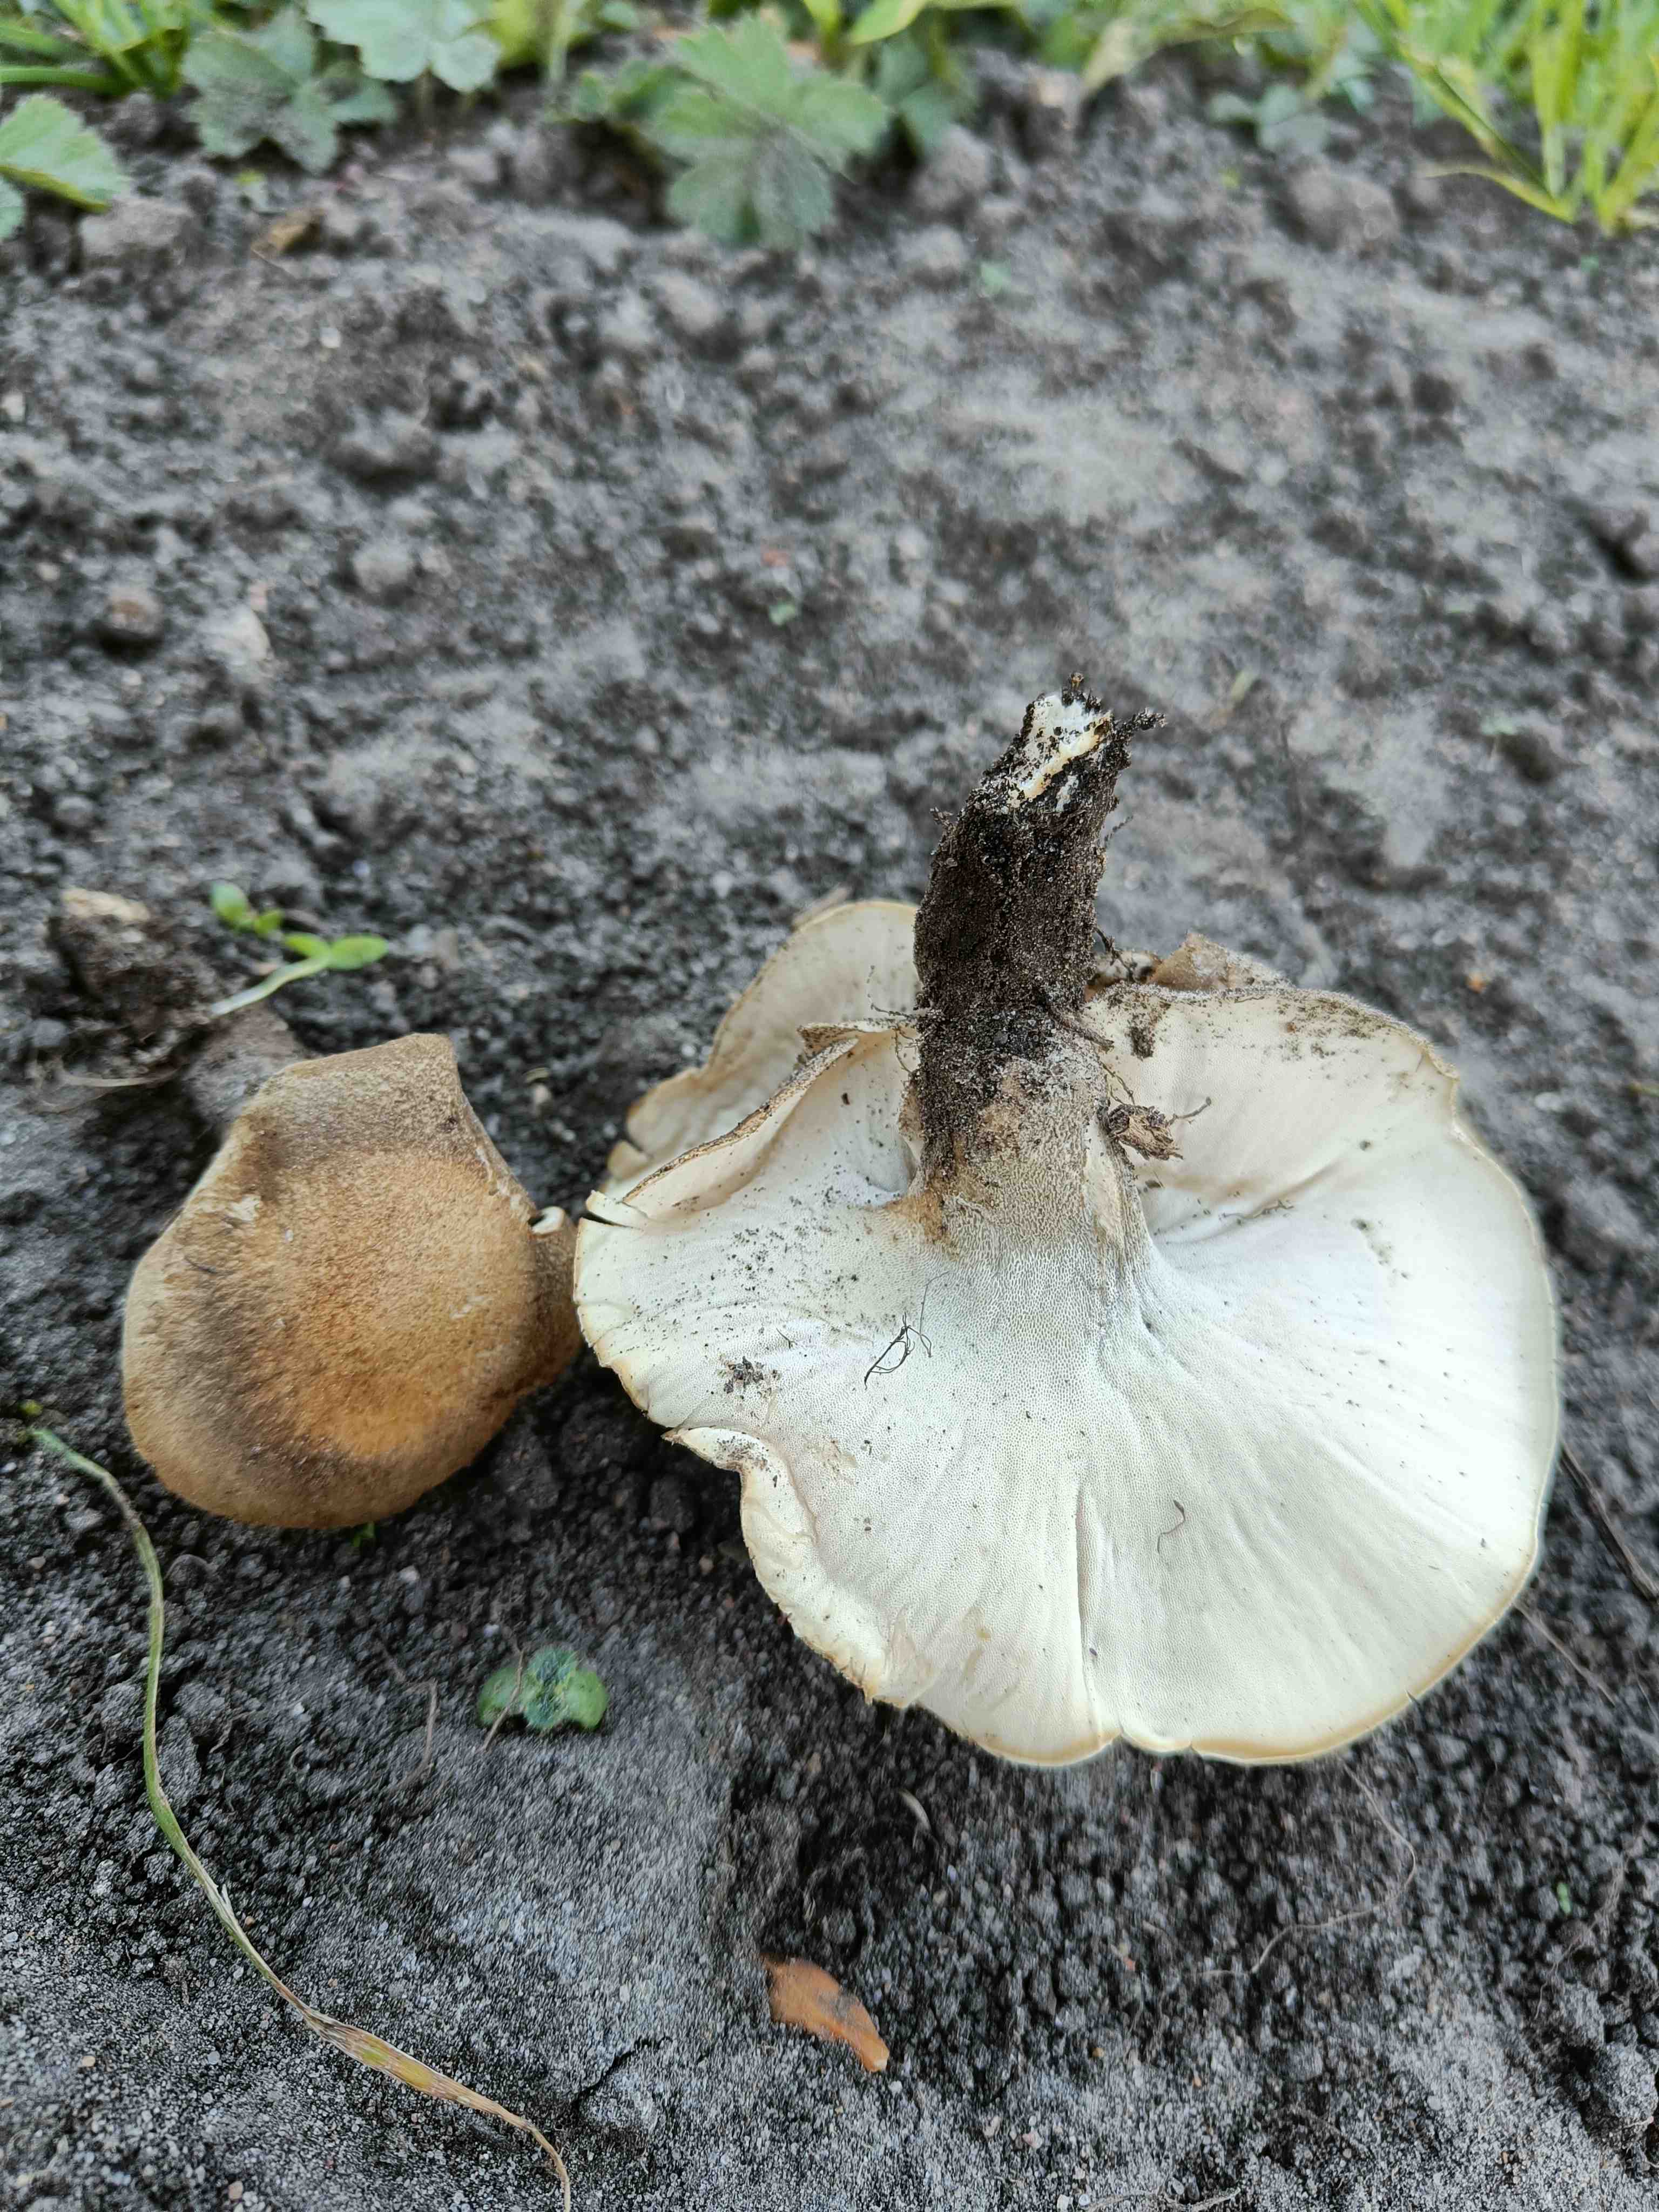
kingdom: Fungi
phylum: Basidiomycota
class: Agaricomycetes
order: Polyporales
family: Polyporaceae
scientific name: Polyporaceae
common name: poresvampfamilien
